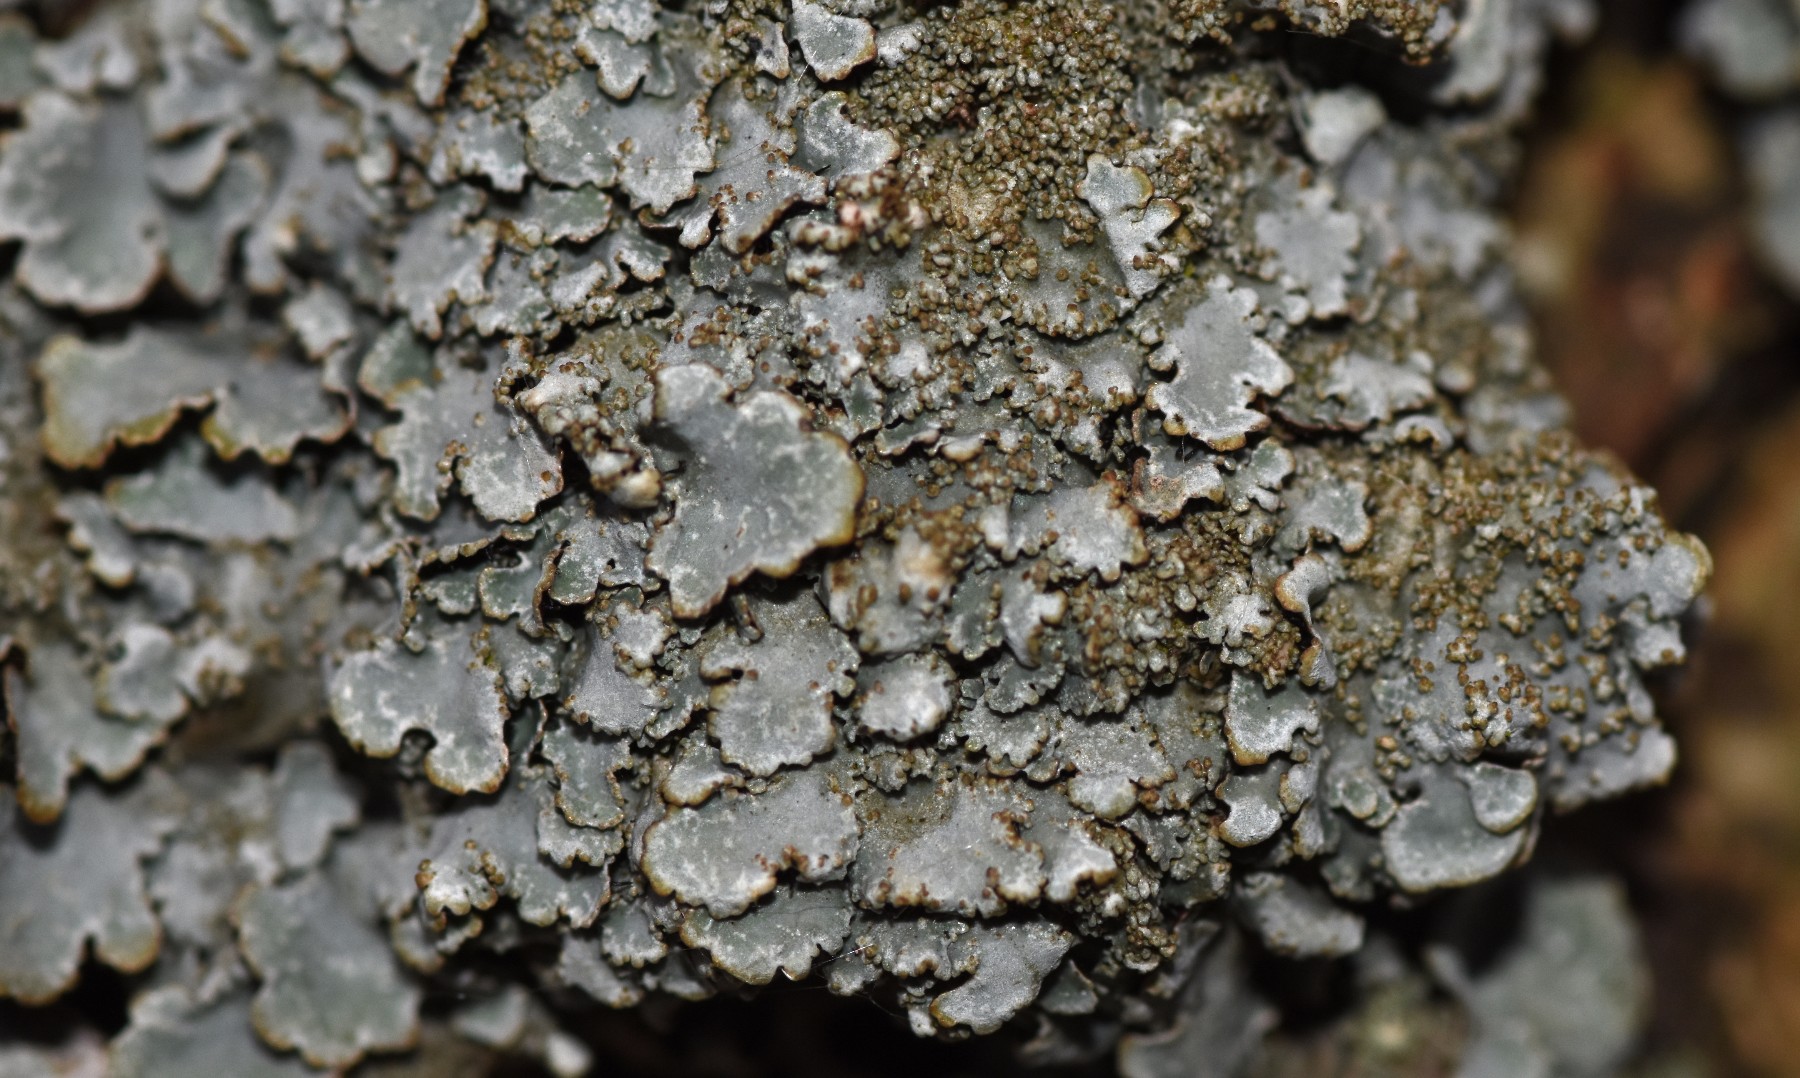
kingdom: Fungi
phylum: Ascomycota
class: Lecanoromycetes
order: Lecanorales
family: Parmeliaceae
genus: Parmelia
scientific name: Parmelia ernstiae
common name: rimstift-skållav
